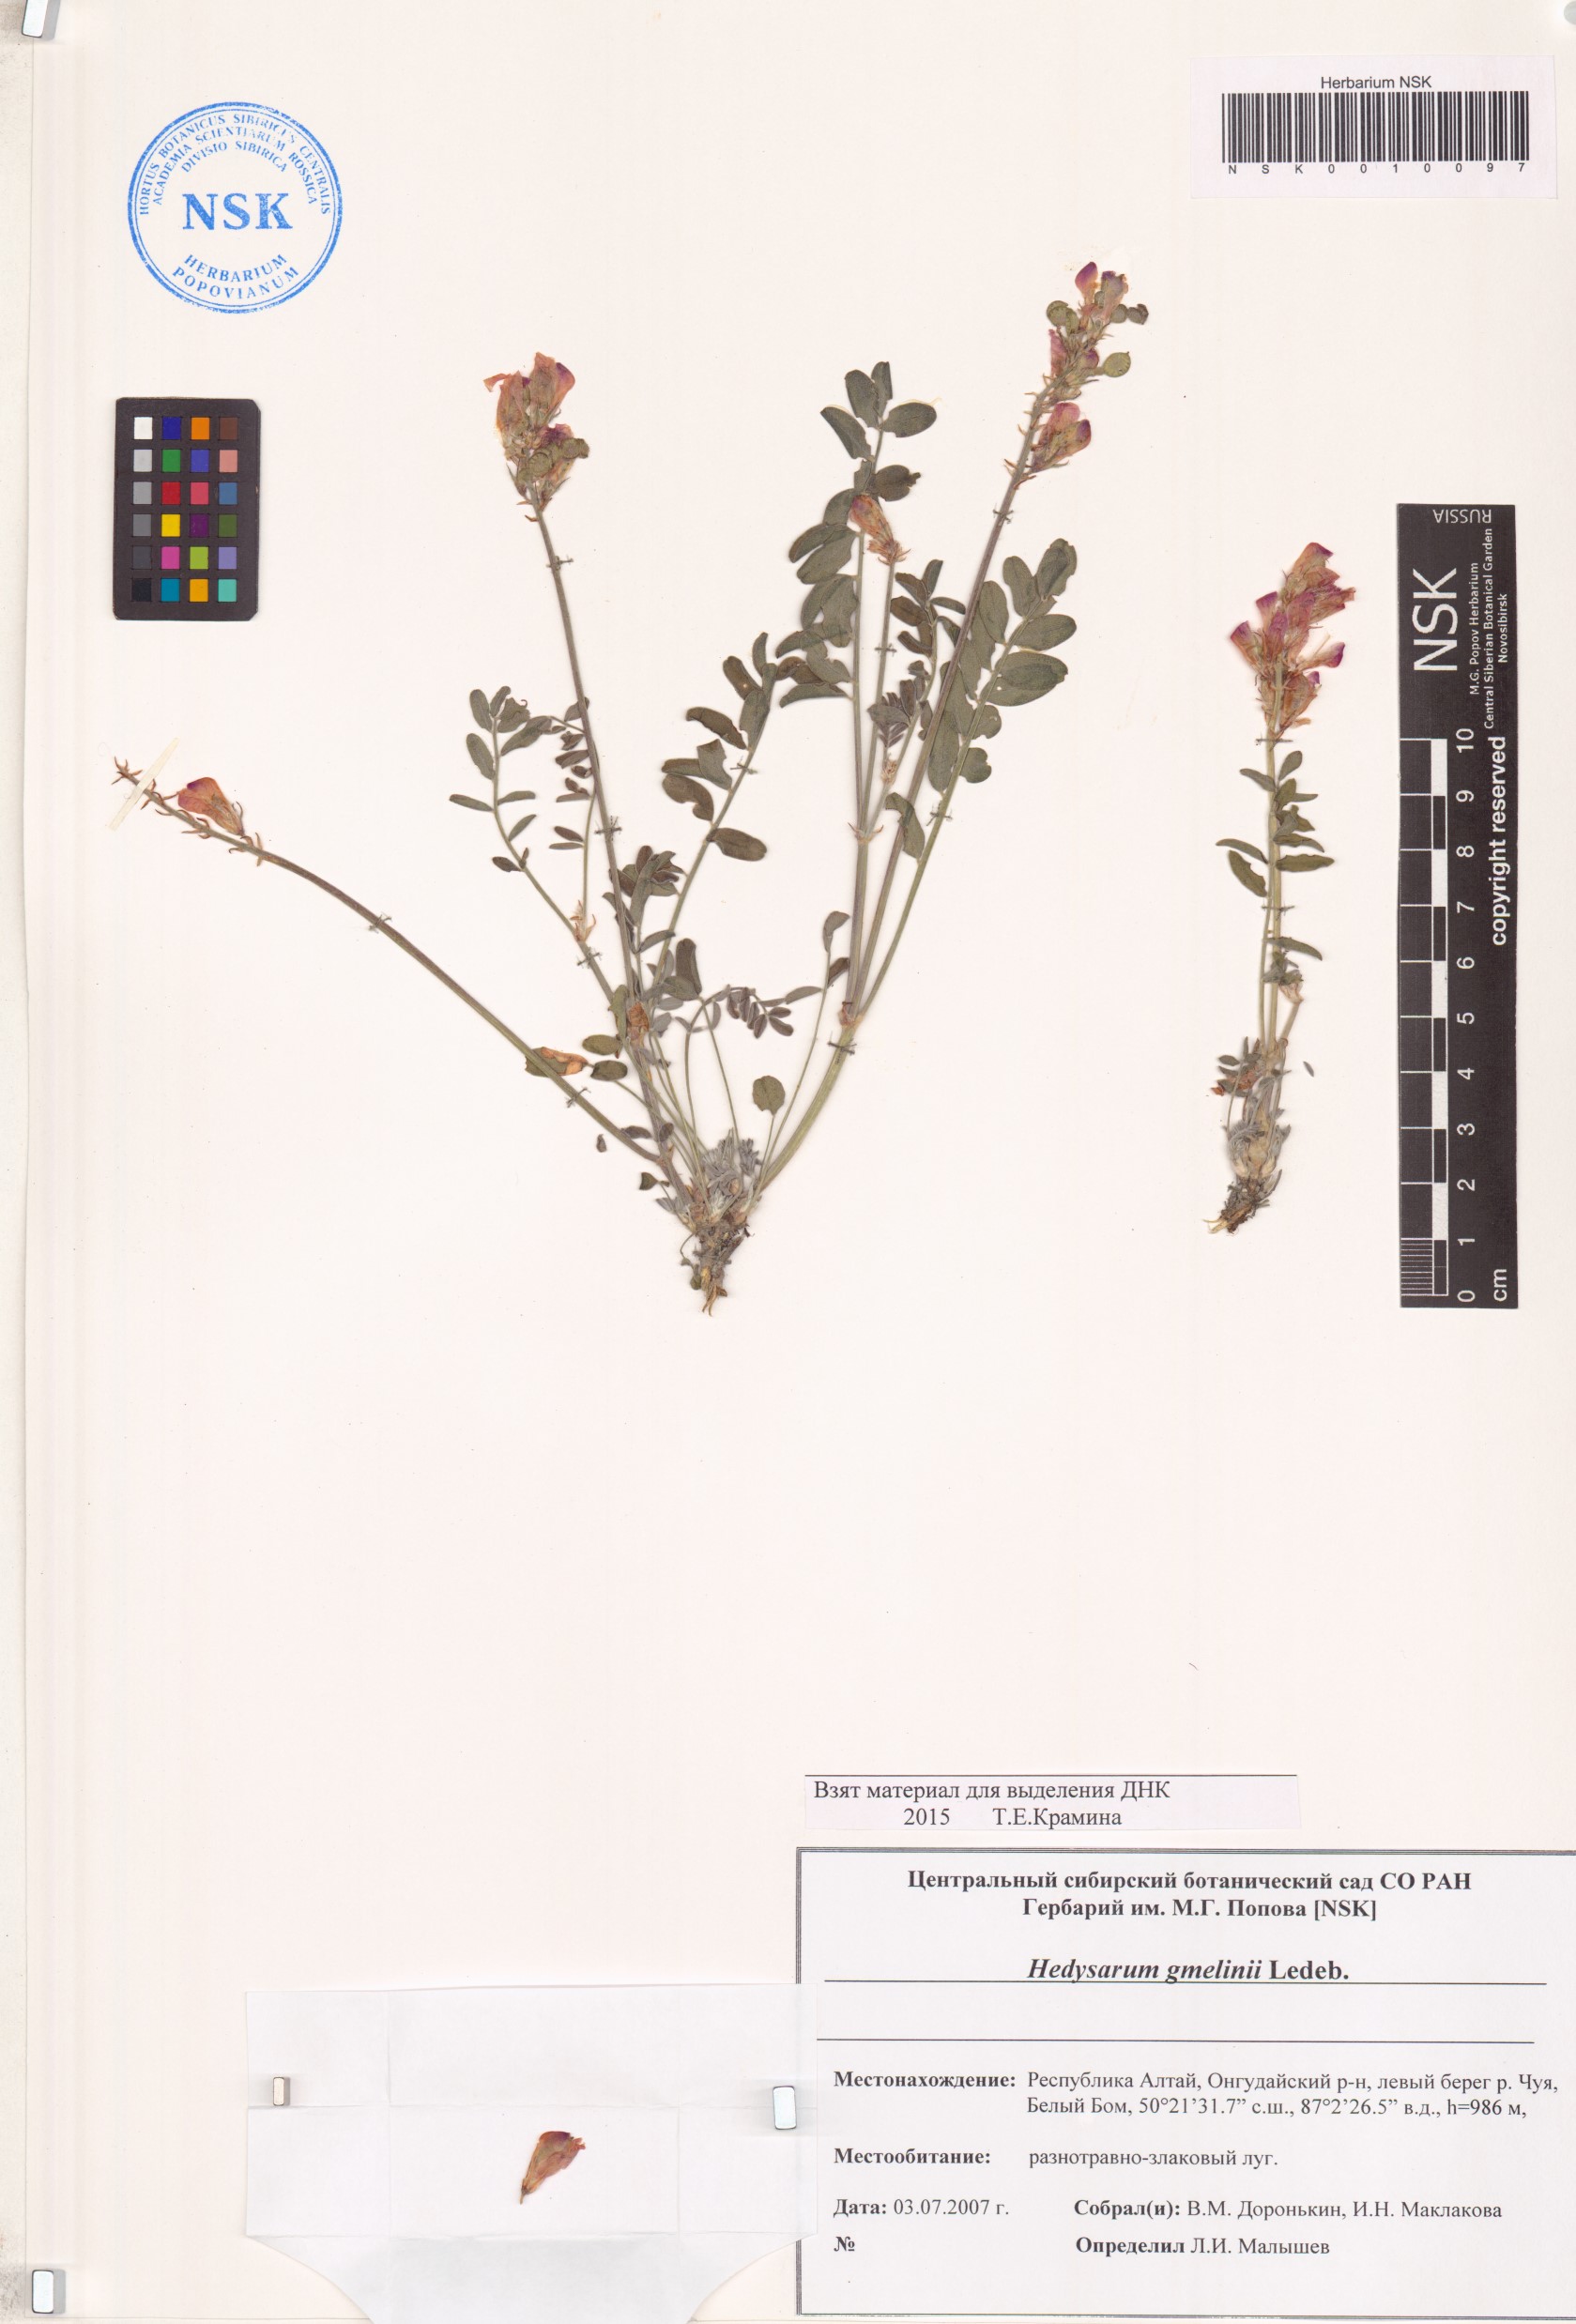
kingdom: Plantae
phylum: Tracheophyta
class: Magnoliopsida
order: Fabales
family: Fabaceae
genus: Hedysarum
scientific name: Hedysarum gmelinii
